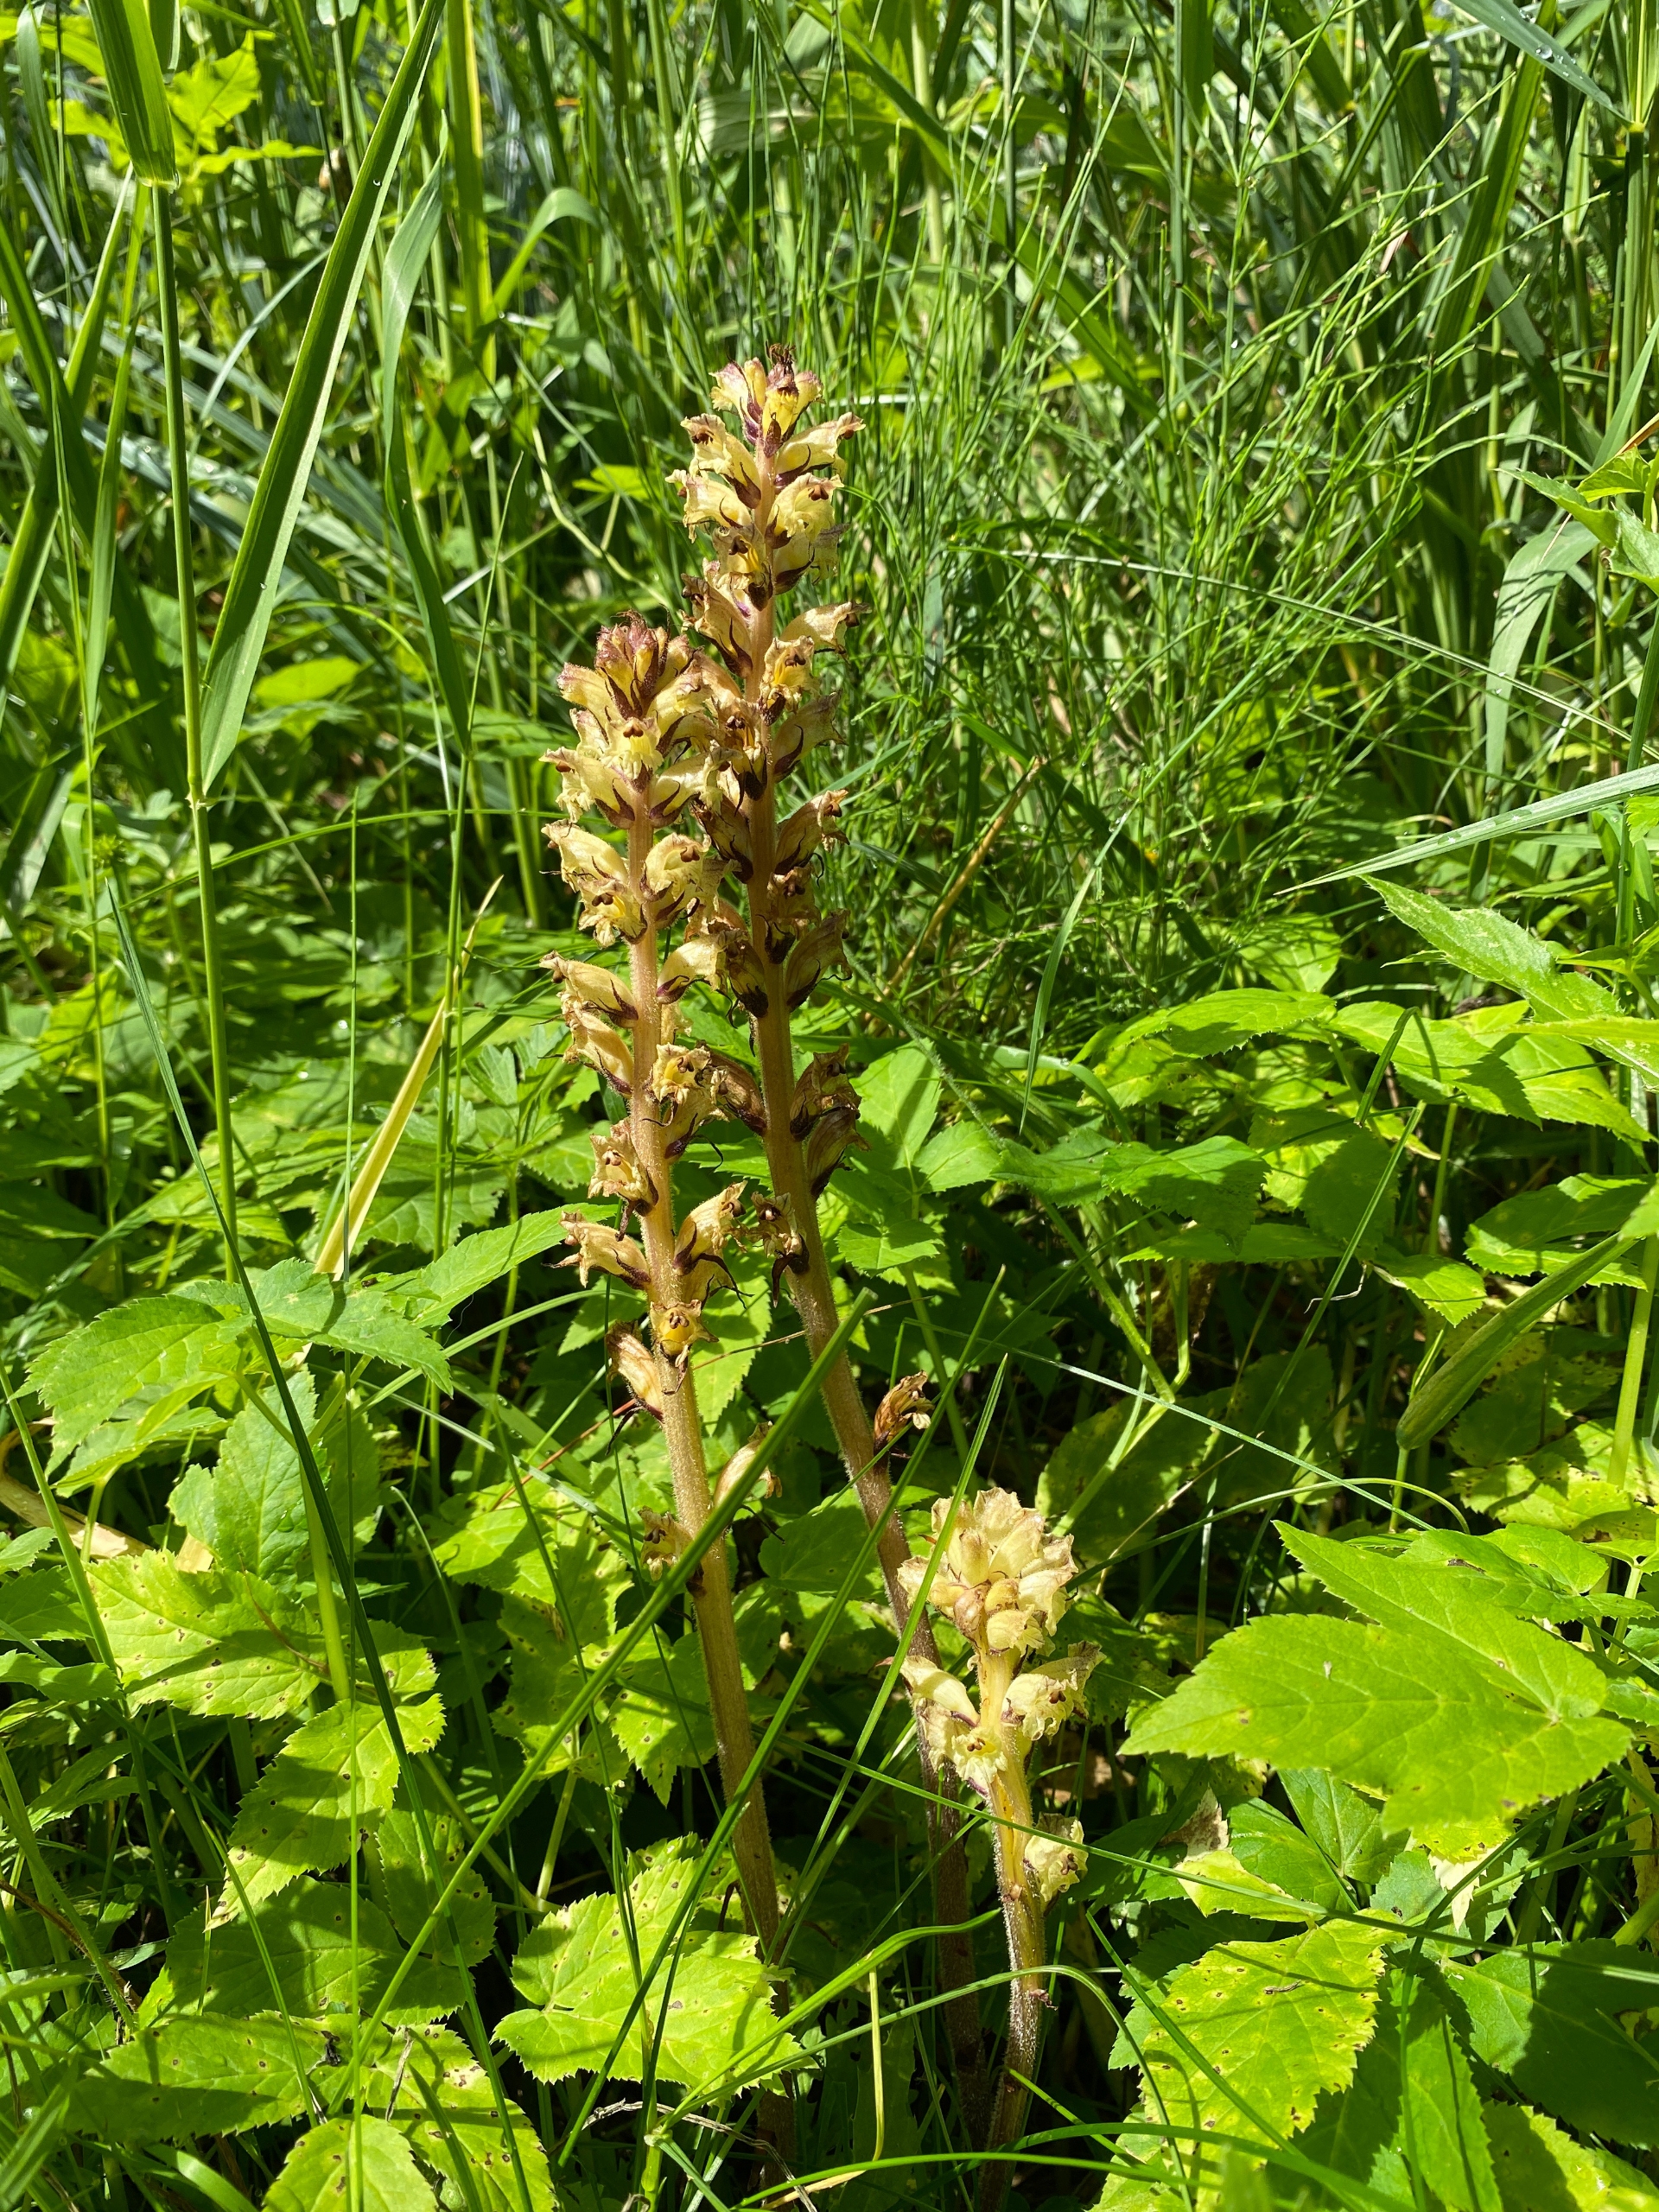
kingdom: Plantae
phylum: Tracheophyta
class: Magnoliopsida
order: Lamiales
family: Orobanchaceae
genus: Orobanche
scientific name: Orobanche reticulata
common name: Tidsel-gyvelkvæler
